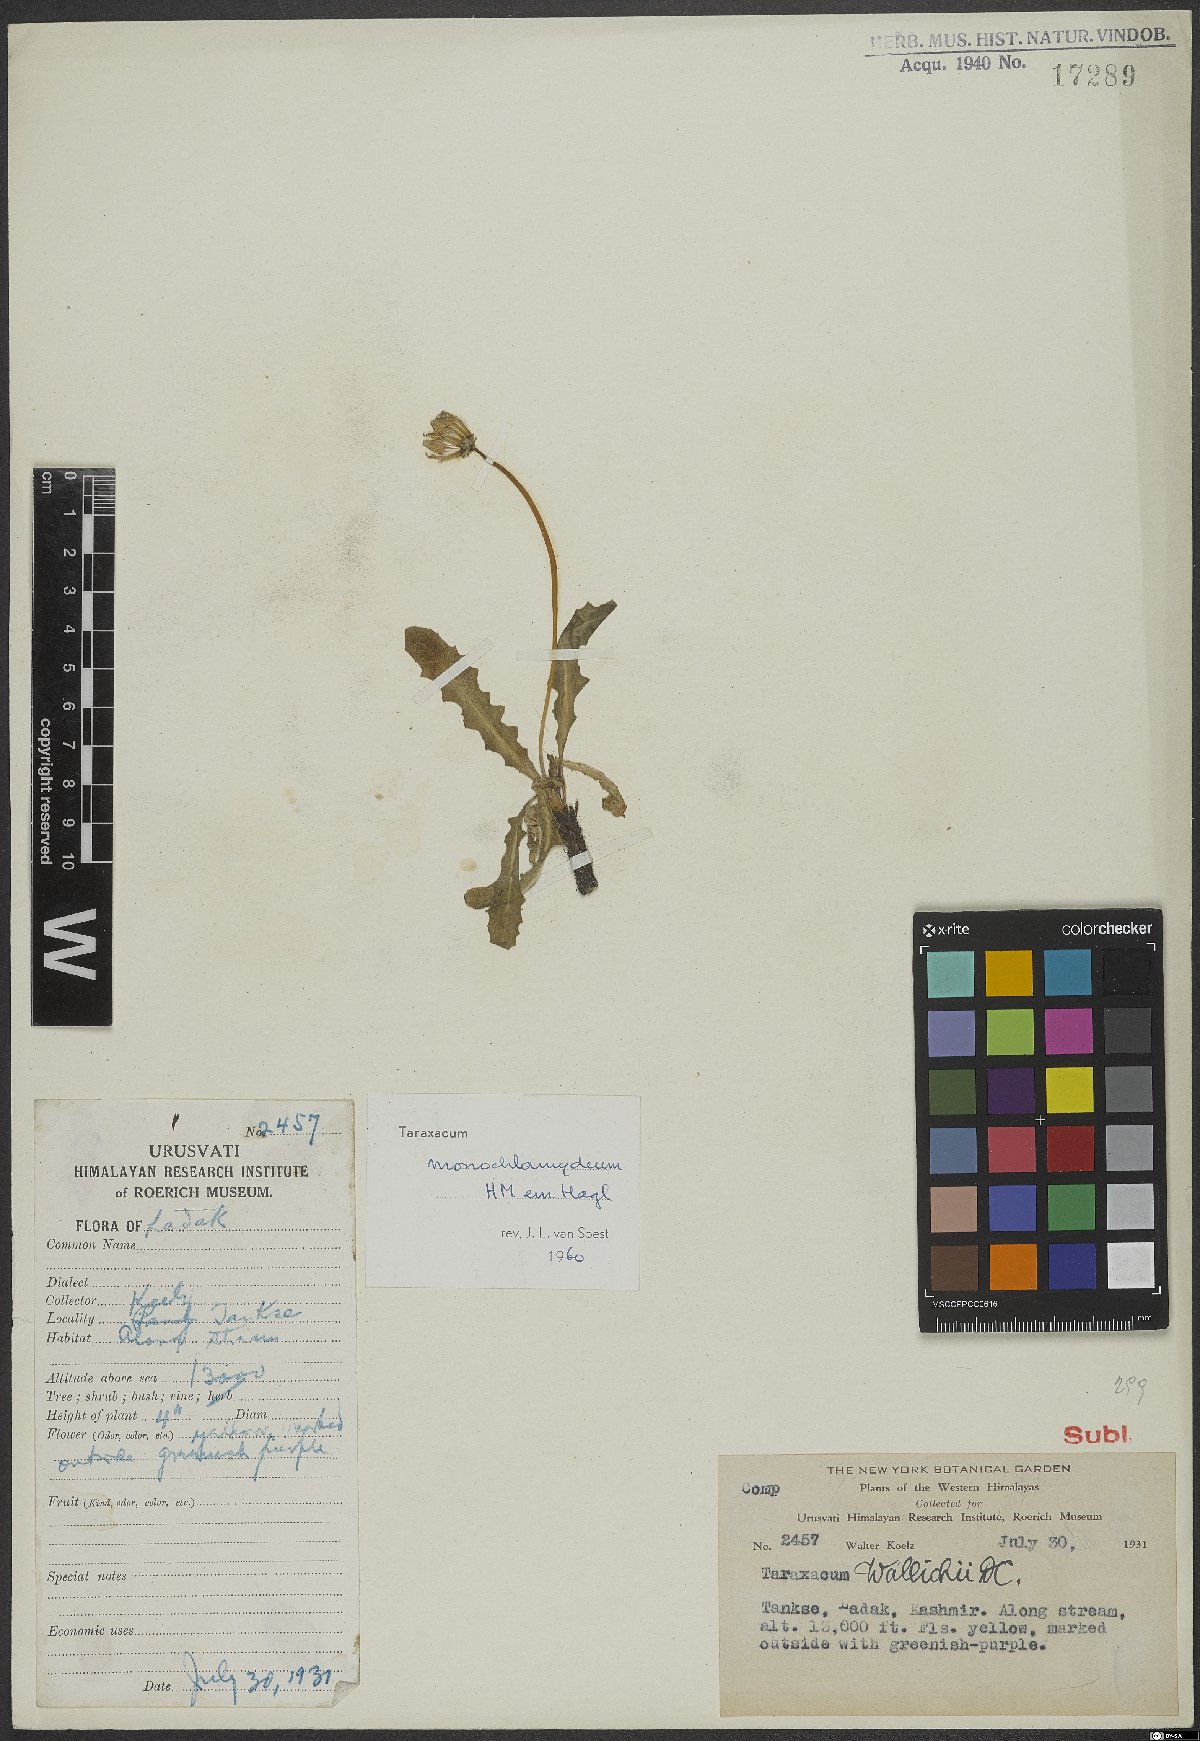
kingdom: Plantae
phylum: Tracheophyta
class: Magnoliopsida
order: Asterales
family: Asteraceae
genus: Taraxacum
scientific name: Taraxacum monochlamydeum
